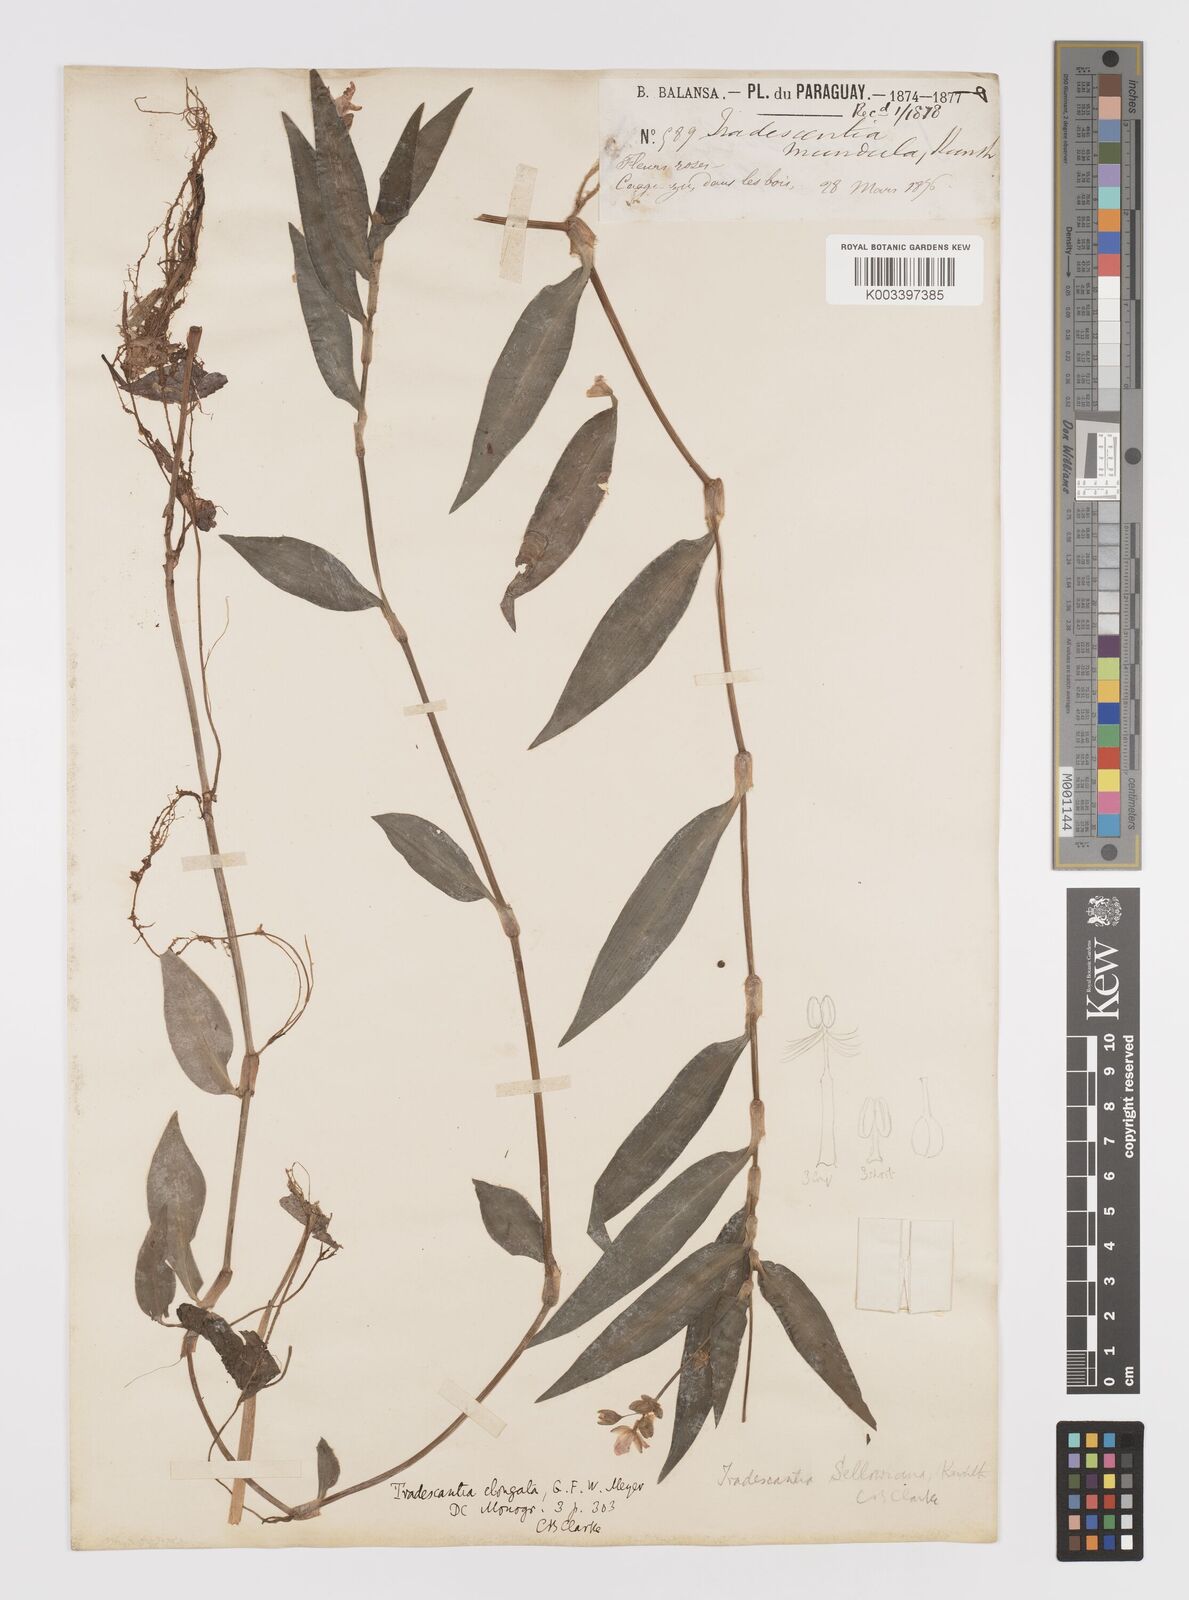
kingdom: Plantae
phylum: Tracheophyta
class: Liliopsida
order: Commelinales
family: Commelinaceae
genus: Callisia
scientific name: Callisia diuretica
